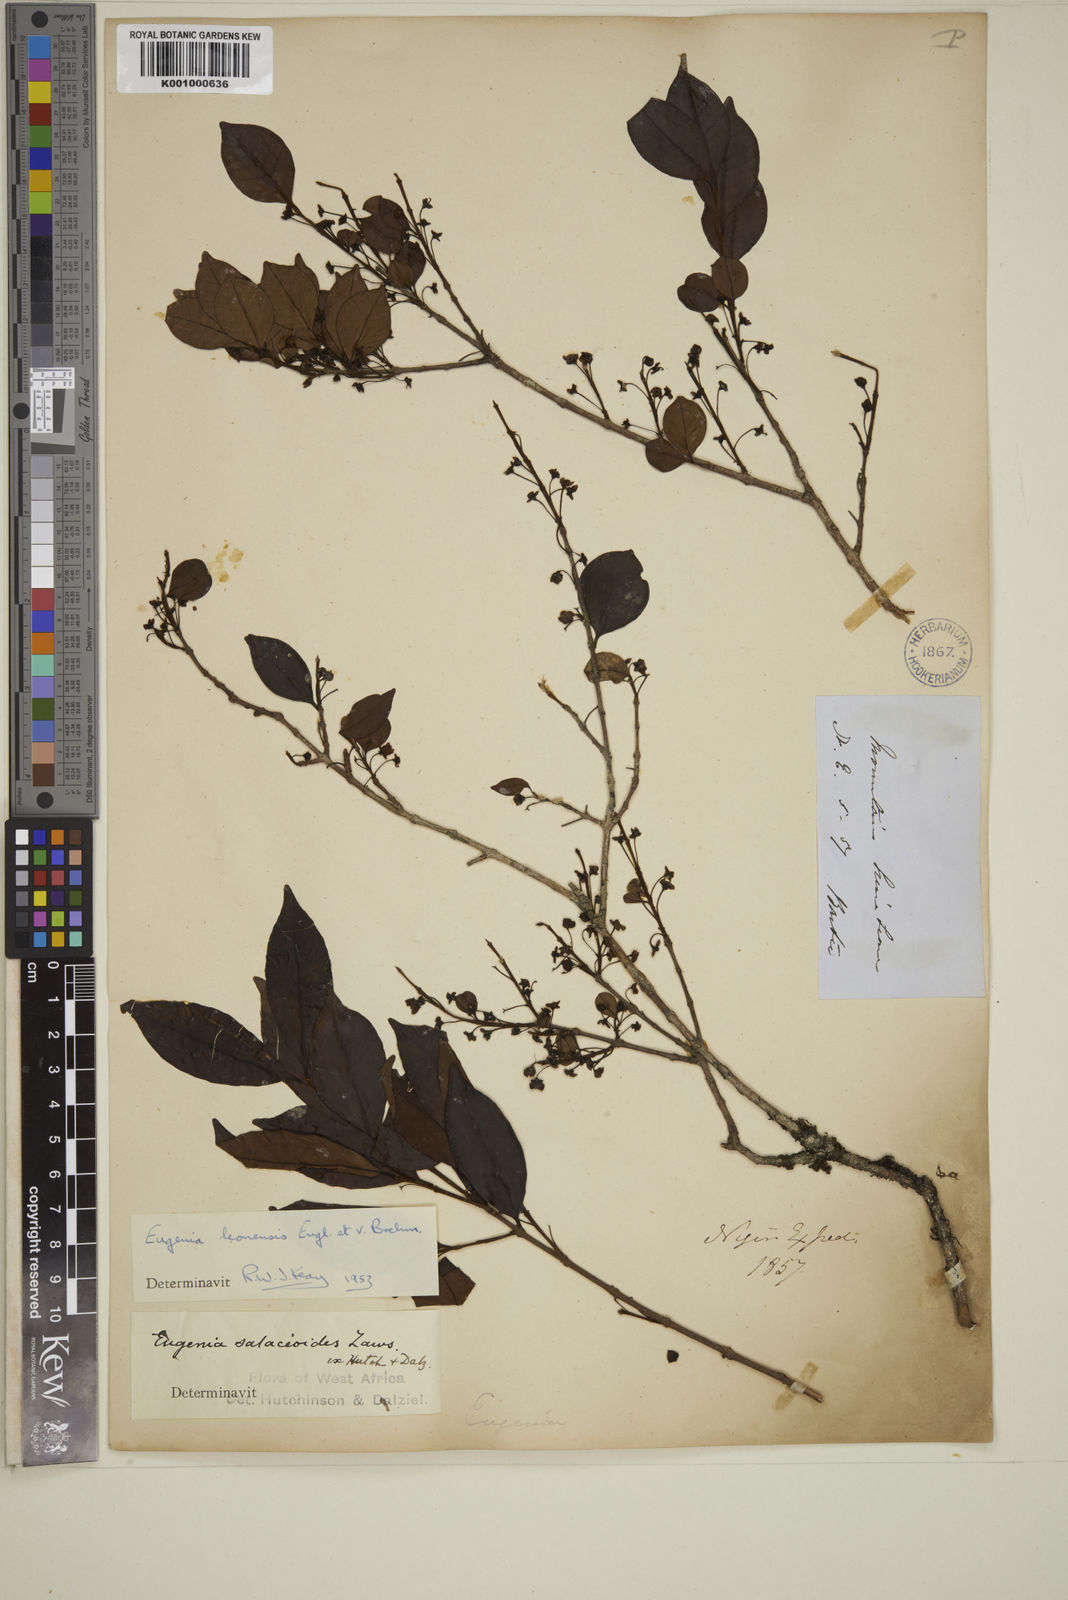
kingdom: Plantae
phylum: Tracheophyta
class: Magnoliopsida
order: Myrtales
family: Myrtaceae
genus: Eugenia
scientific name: Eugenia leonensis
